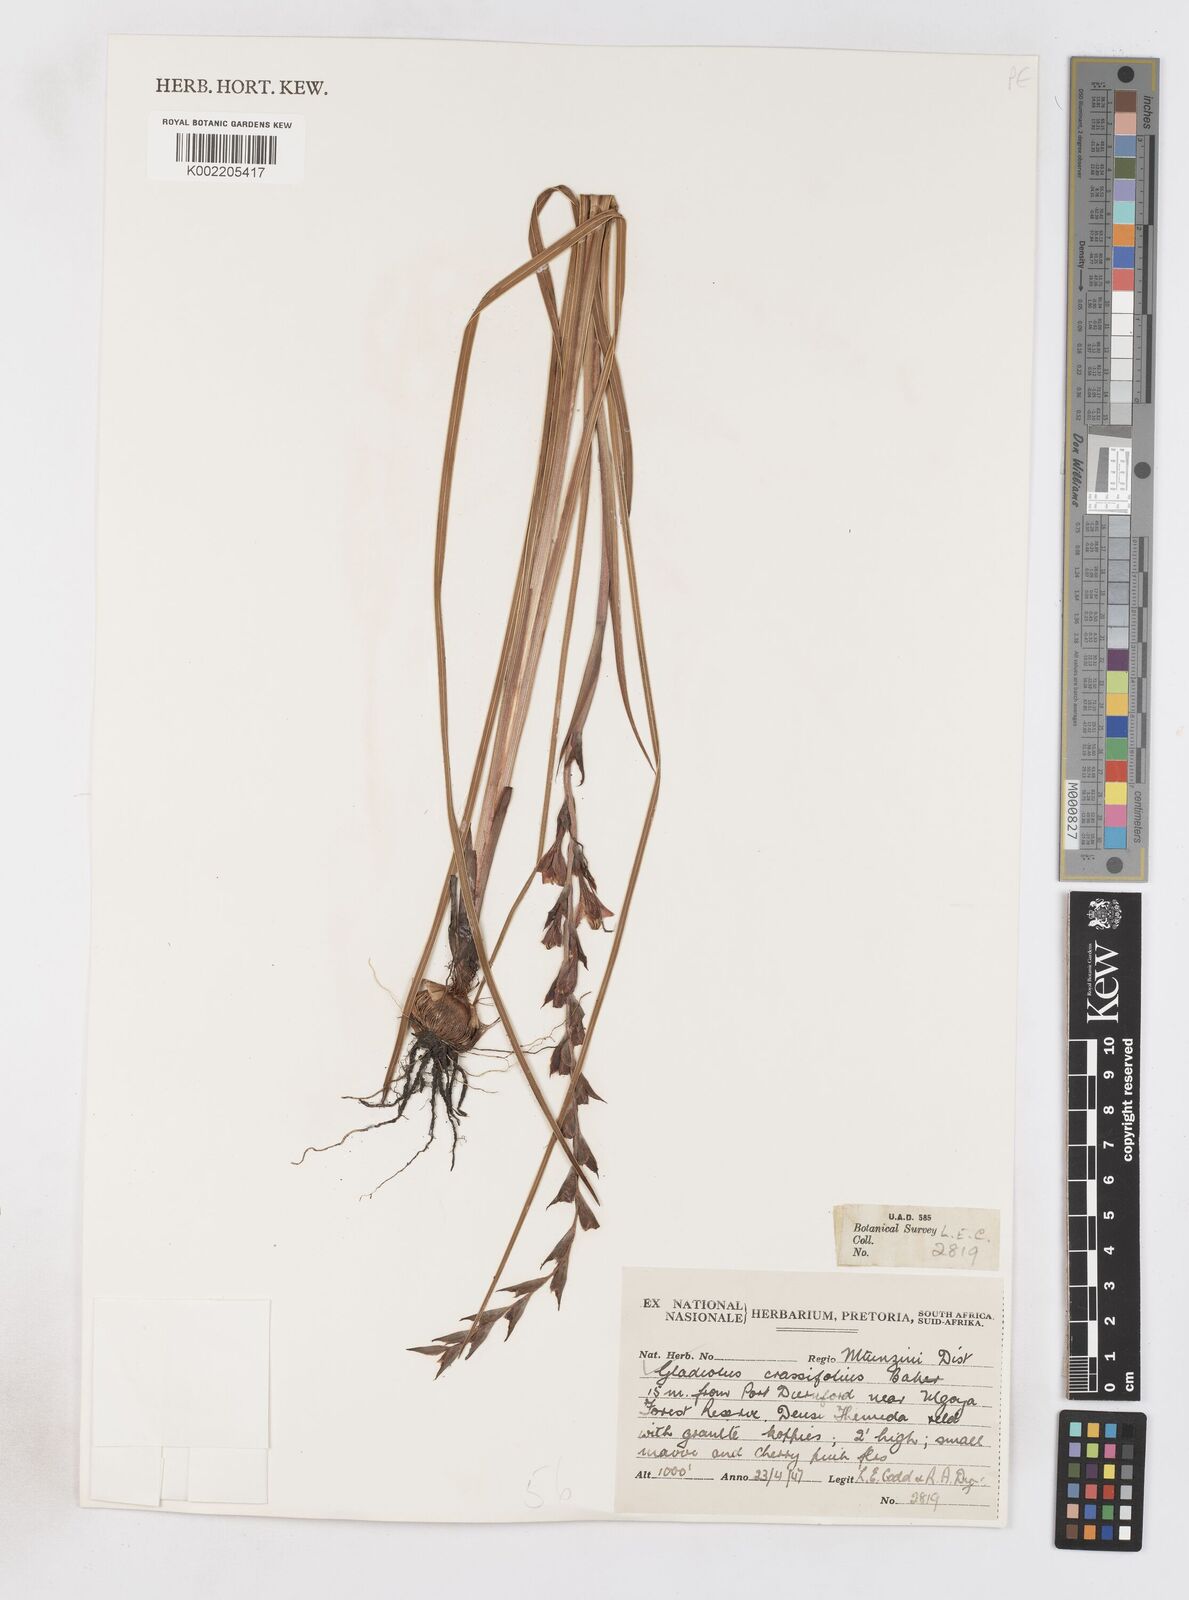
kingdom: Plantae
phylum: Tracheophyta
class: Liliopsida
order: Asparagales
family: Iridaceae
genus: Gladiolus
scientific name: Gladiolus densiflorus
